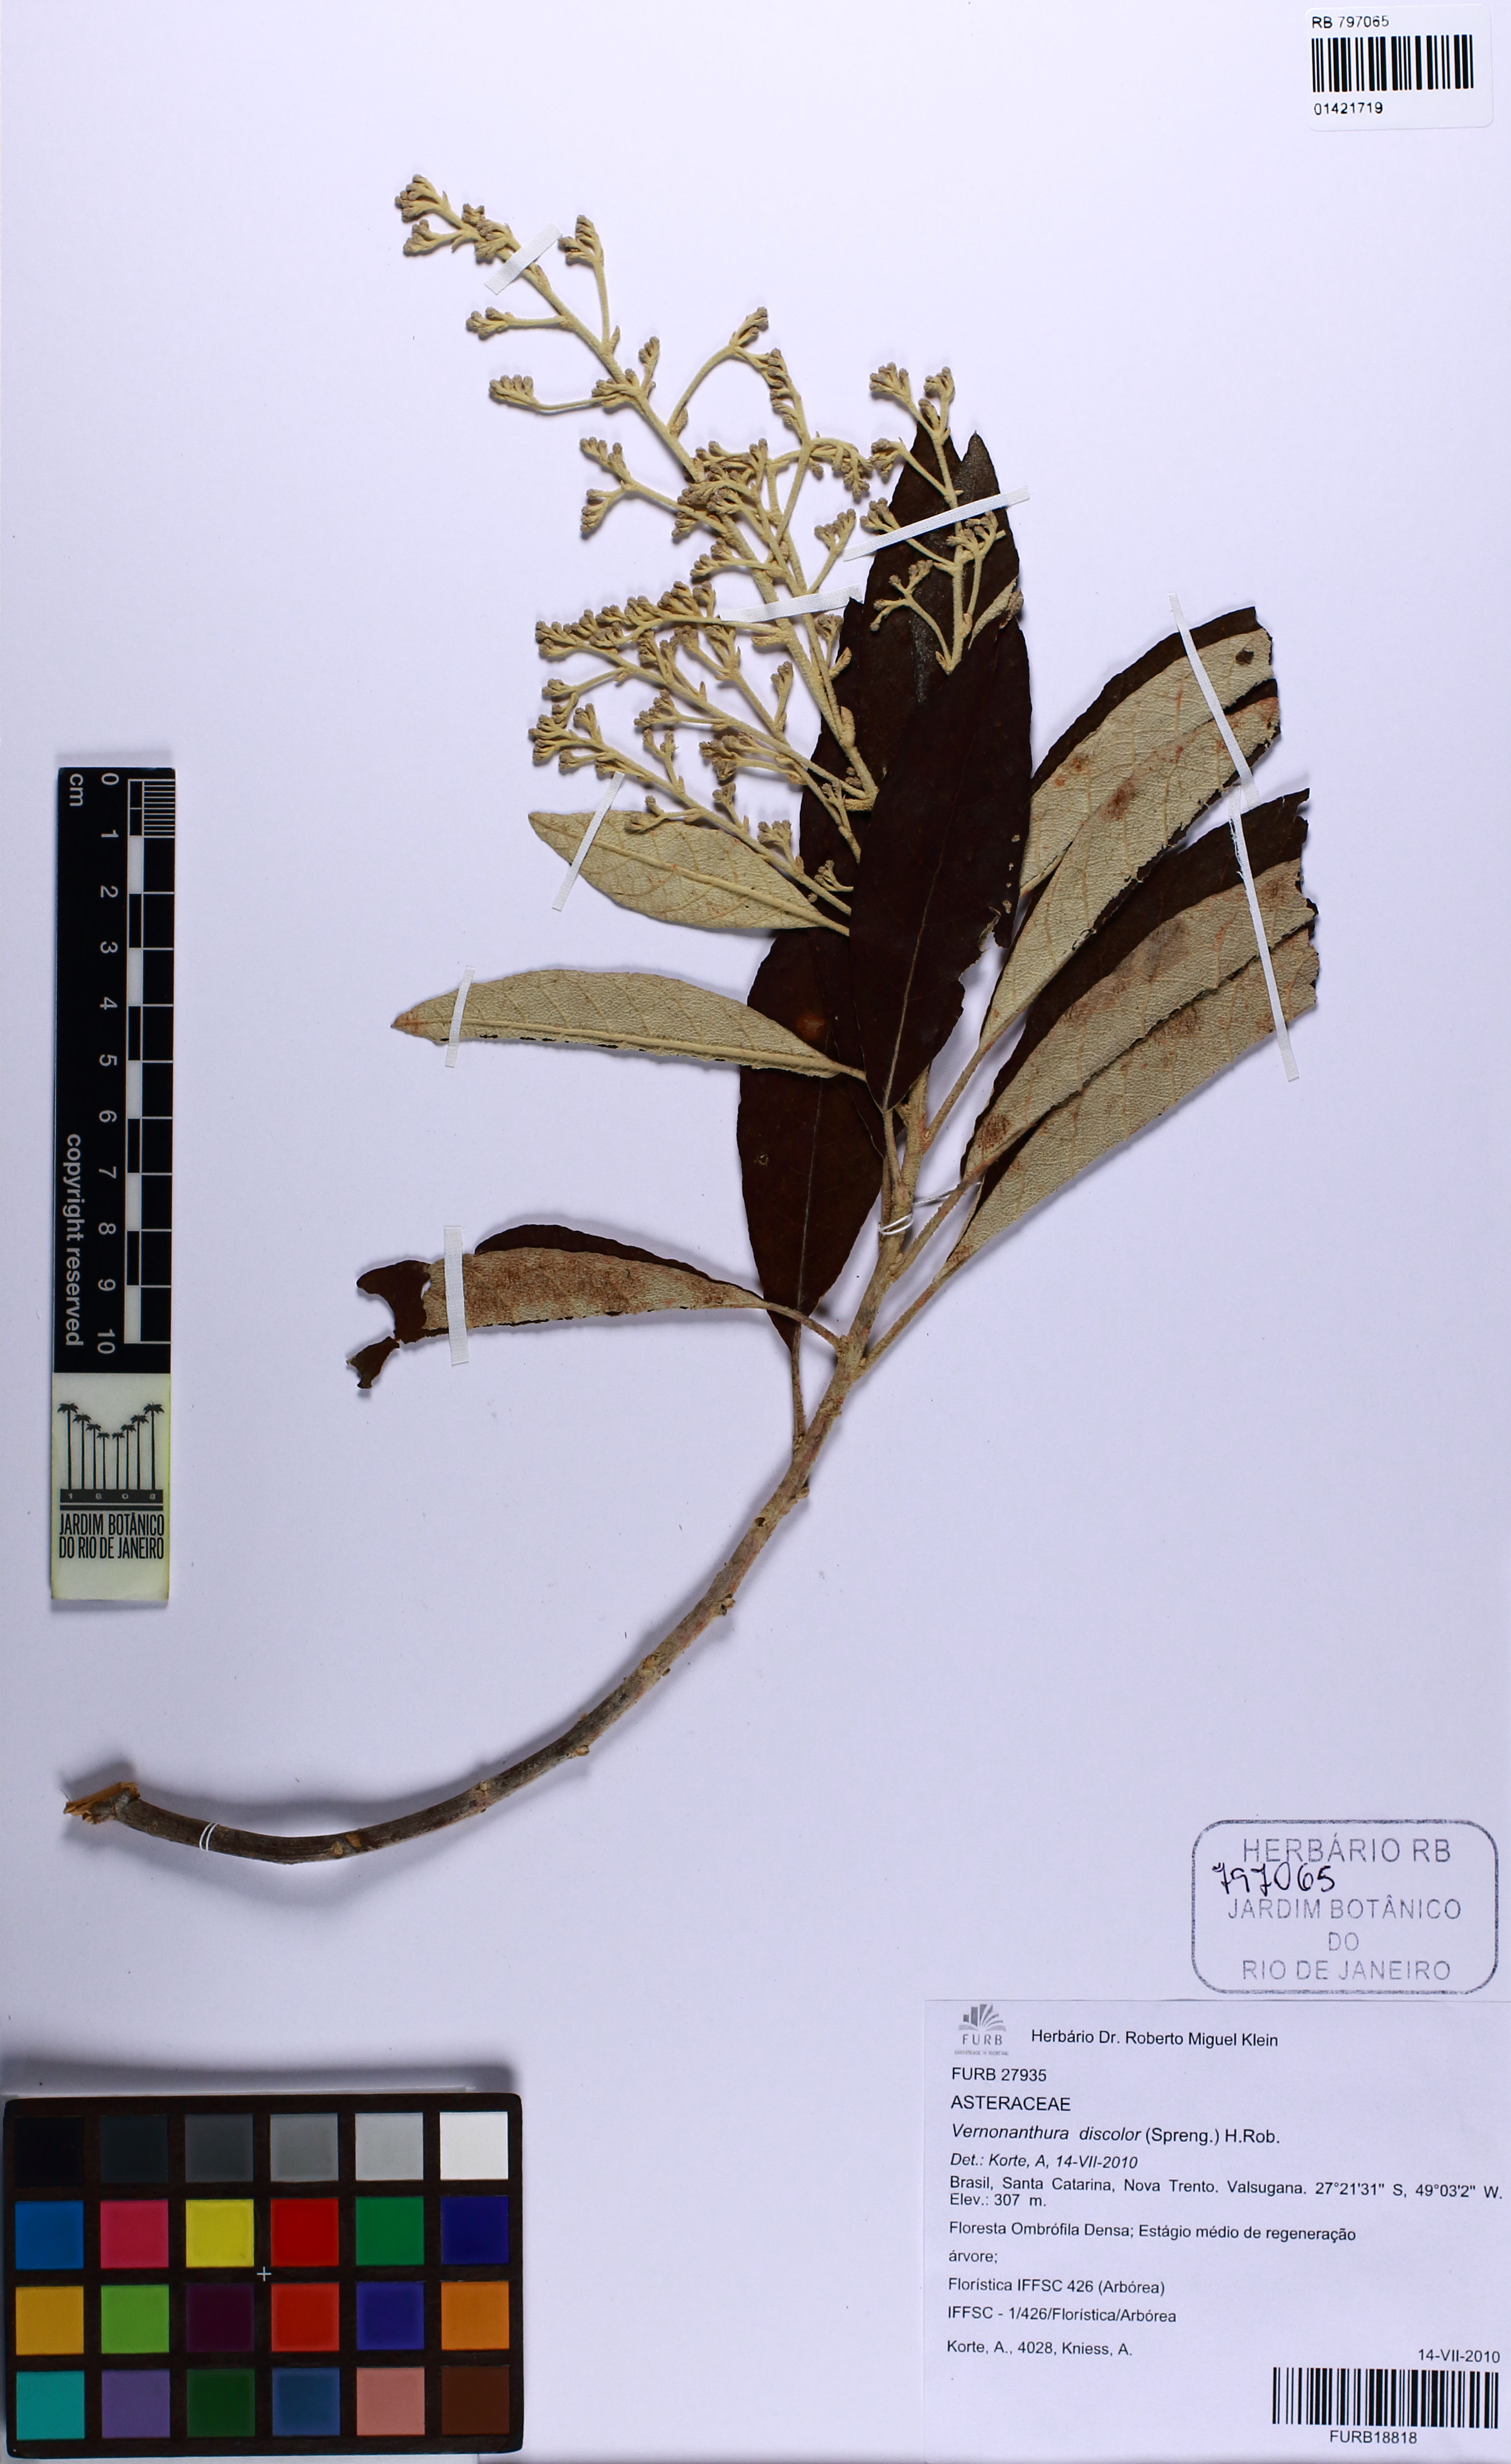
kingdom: Plantae
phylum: Tracheophyta
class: Magnoliopsida
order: Asterales
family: Asteraceae
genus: Vernonanthura
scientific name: Vernonanthura discolor
